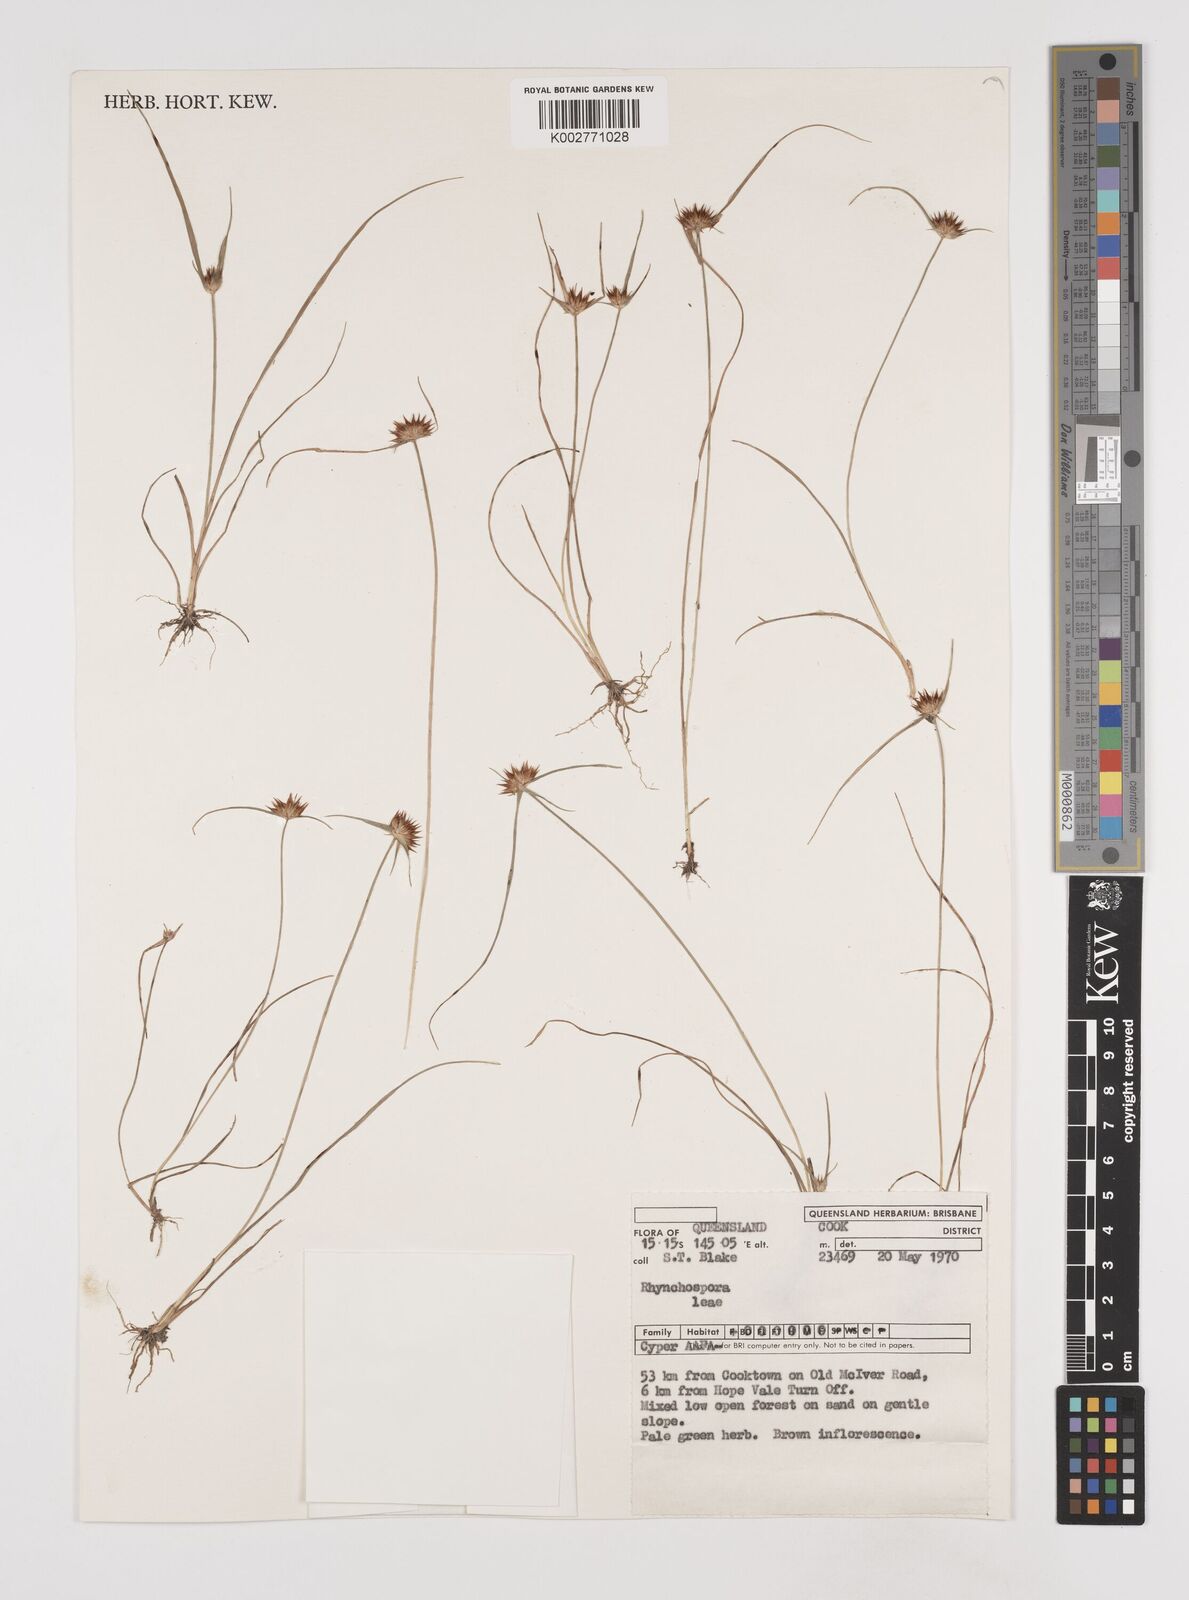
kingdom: Plantae
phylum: Tracheophyta
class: Liliopsida
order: Poales
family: Cyperaceae
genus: Rhynchospora
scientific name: Rhynchospora leae
